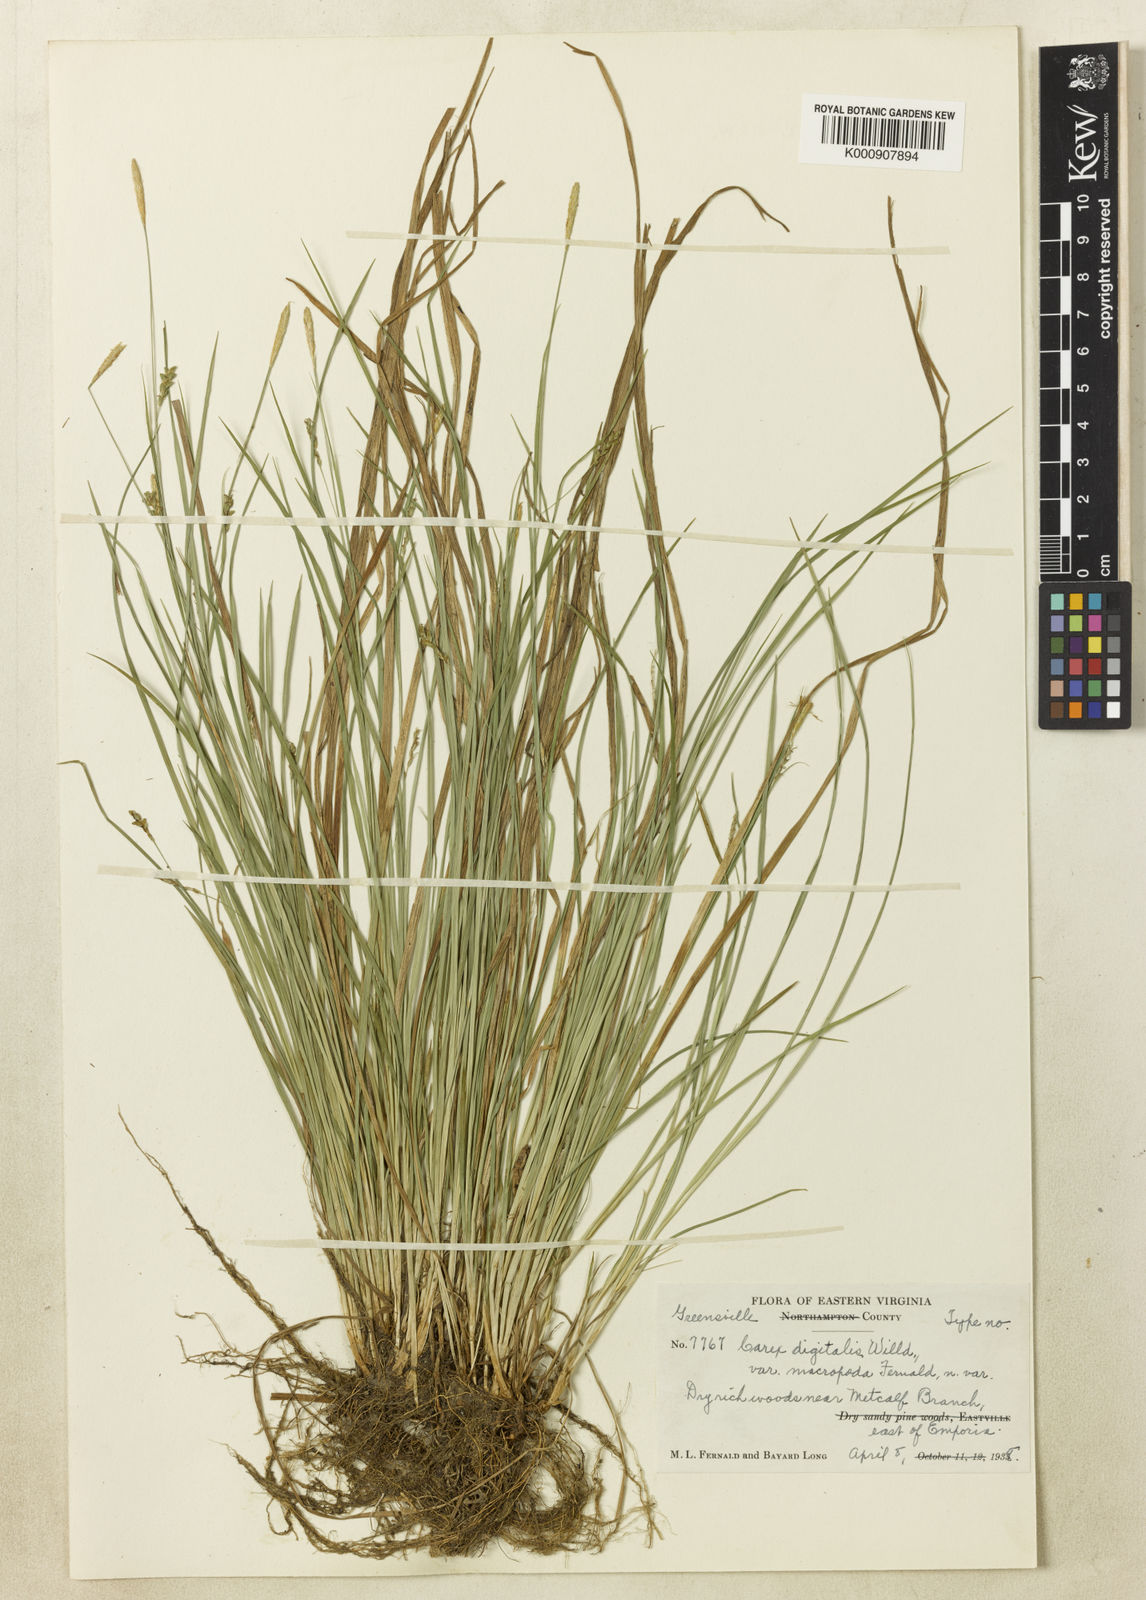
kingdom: Plantae
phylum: Tracheophyta
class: Liliopsida
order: Poales
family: Cyperaceae
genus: Carex
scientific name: Carex digitalis
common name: Slender wood sedge
